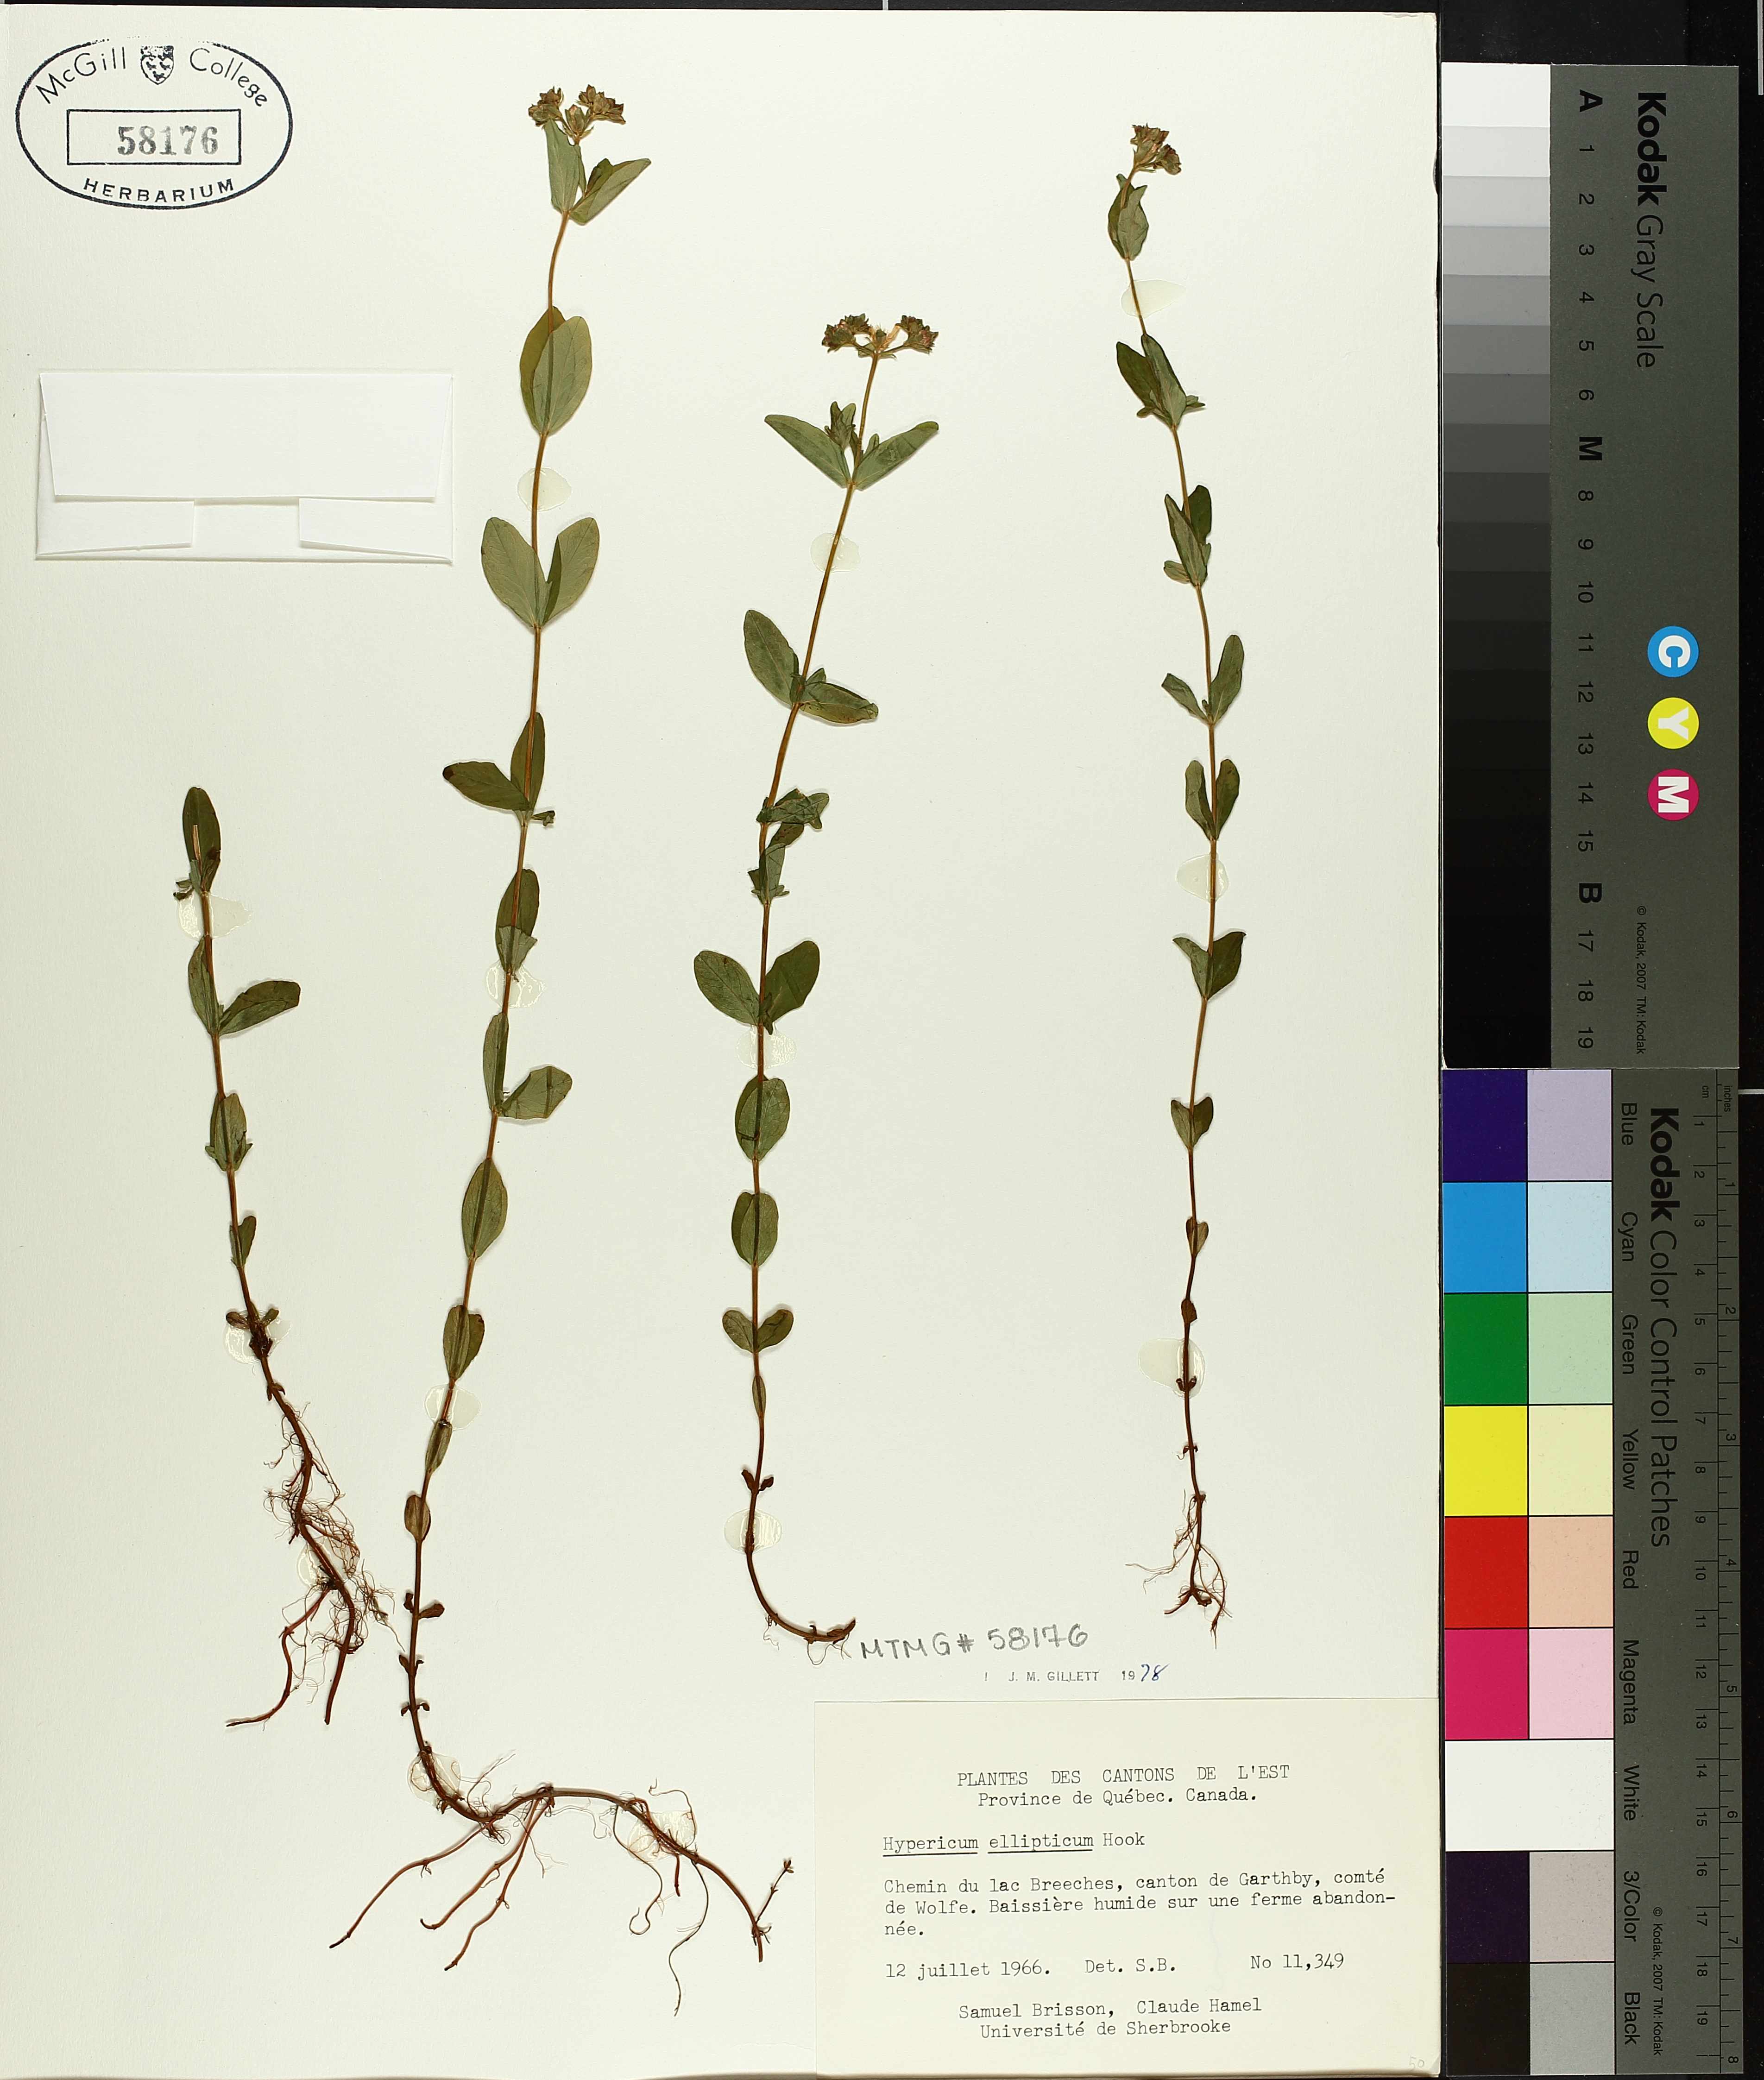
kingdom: Plantae
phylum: Tracheophyta
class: Magnoliopsida
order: Malpighiales
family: Hypericaceae
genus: Hypericum
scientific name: Hypericum ellipticum
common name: Elliptic st. john's-wort
